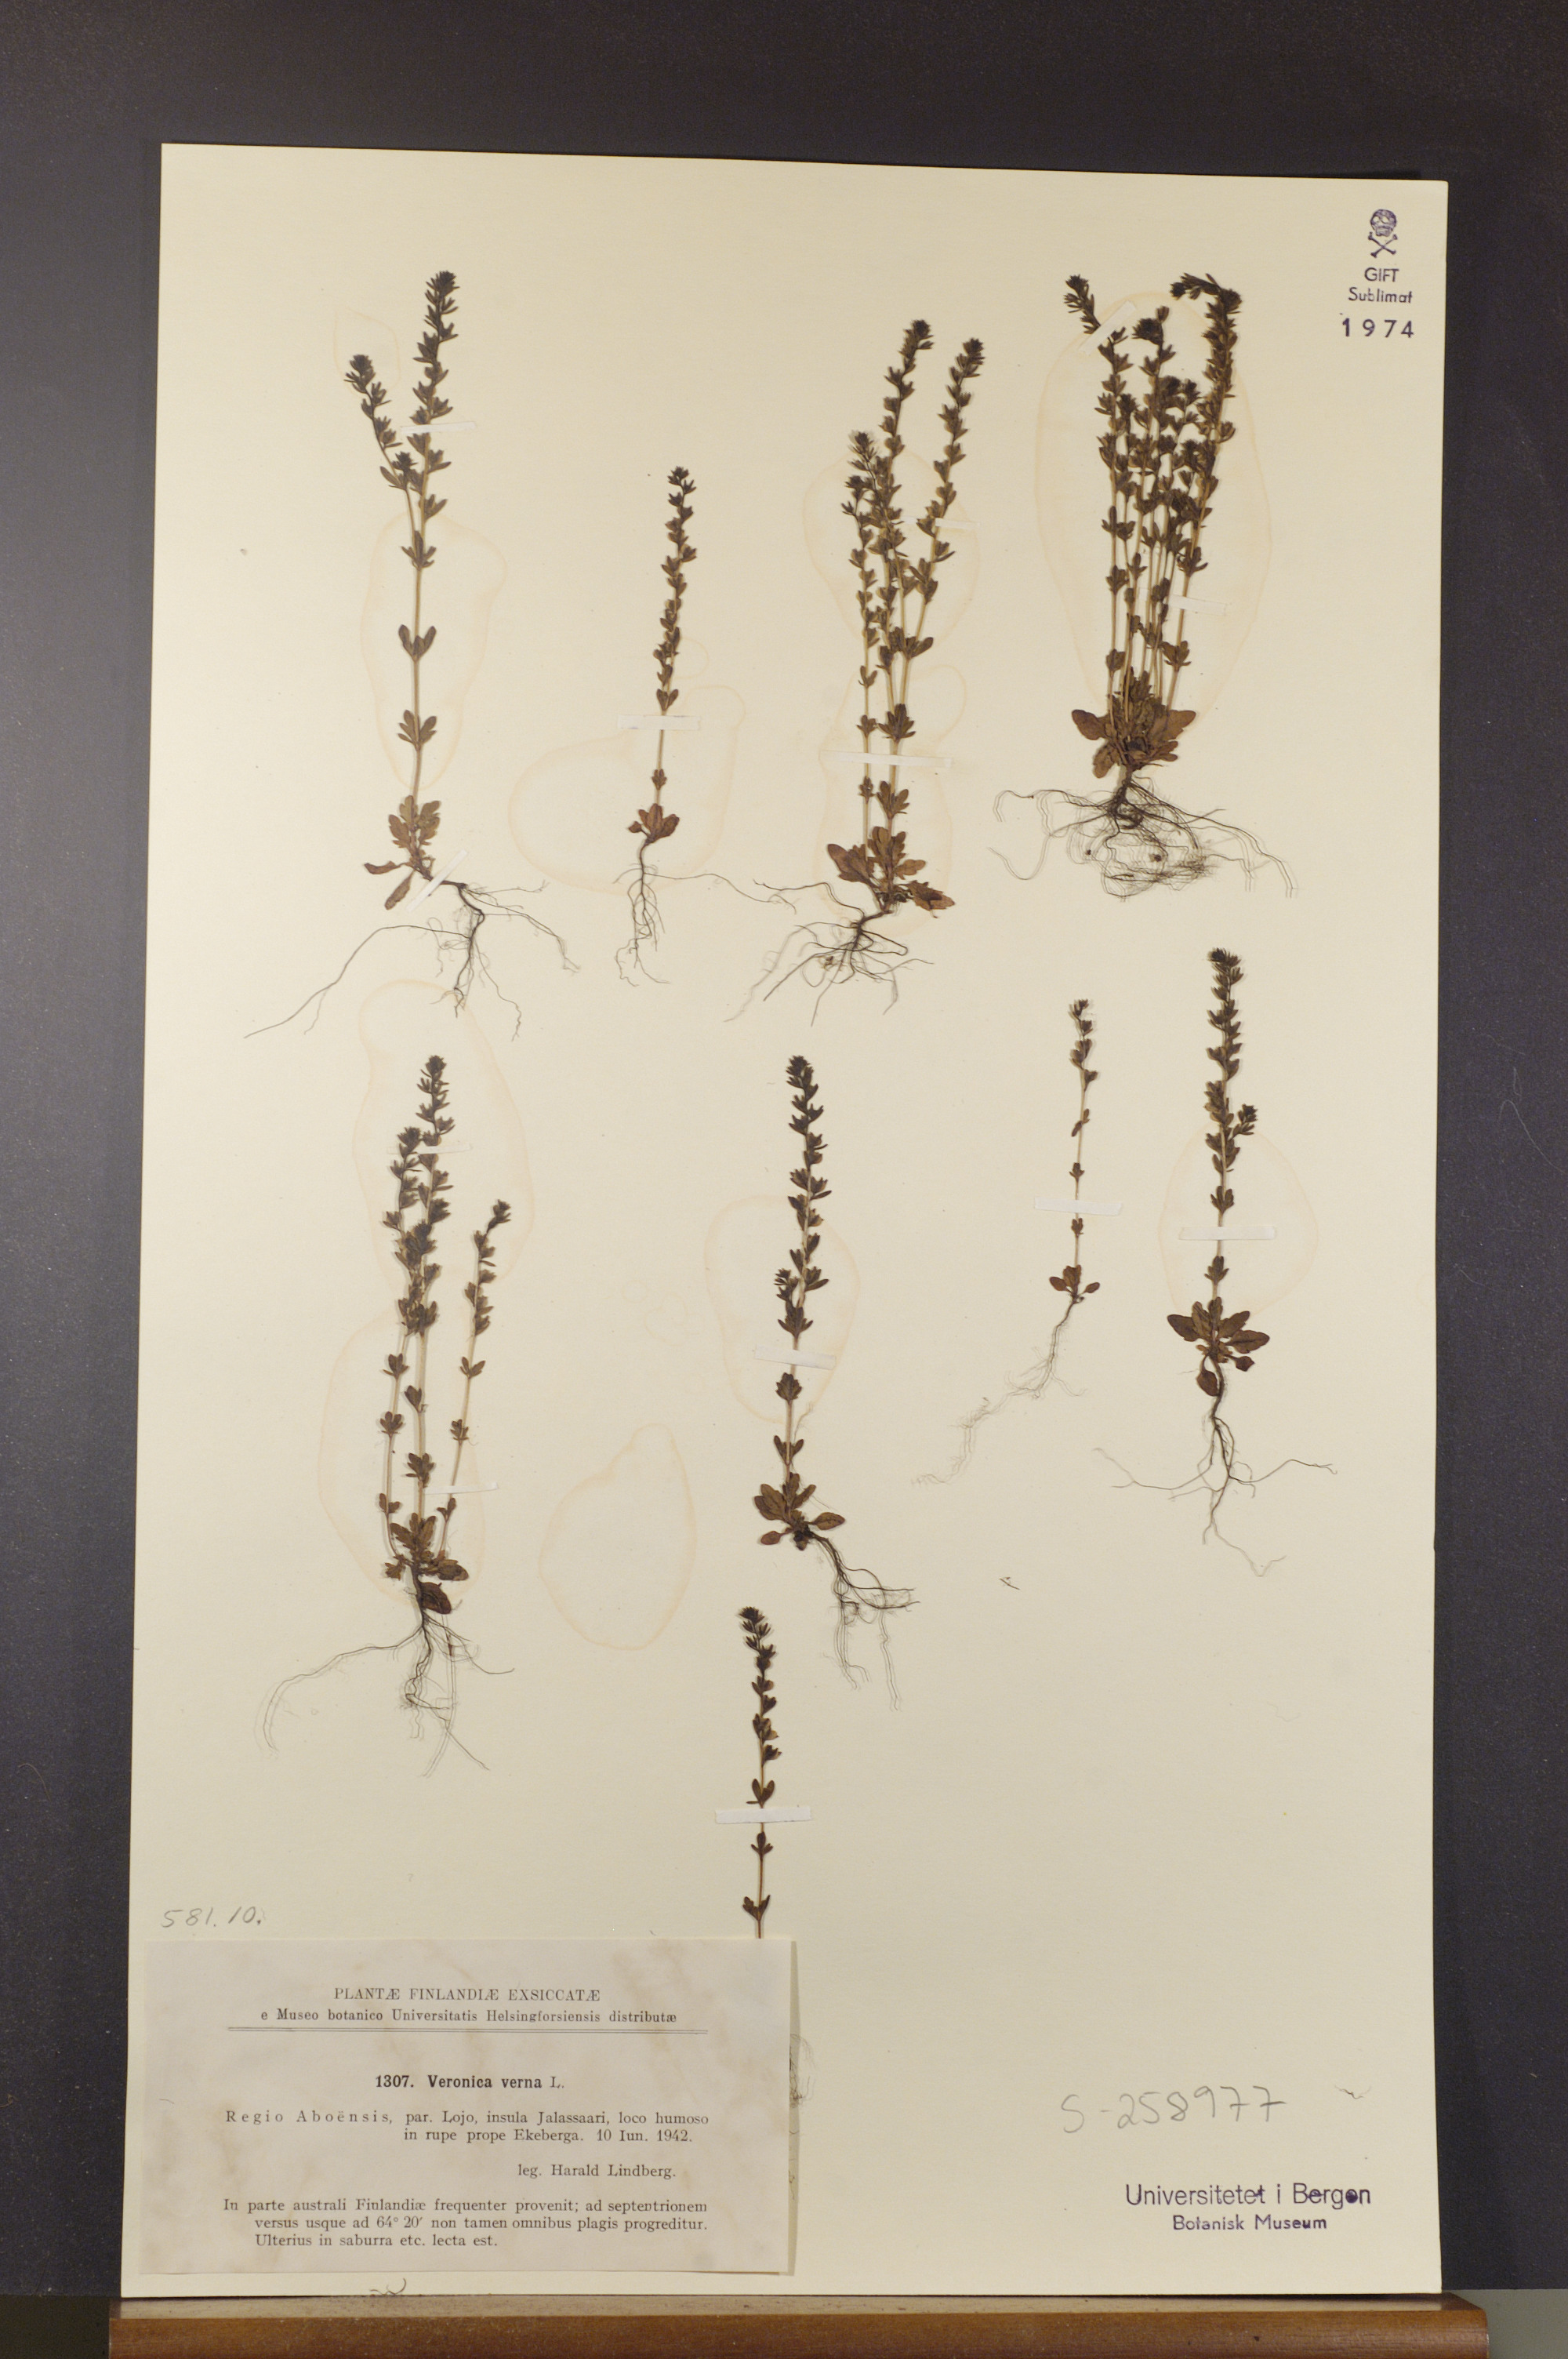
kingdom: Plantae
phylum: Tracheophyta
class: Magnoliopsida
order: Lamiales
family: Plantaginaceae
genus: Veronica
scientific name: Veronica verna
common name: Spring speedwell
